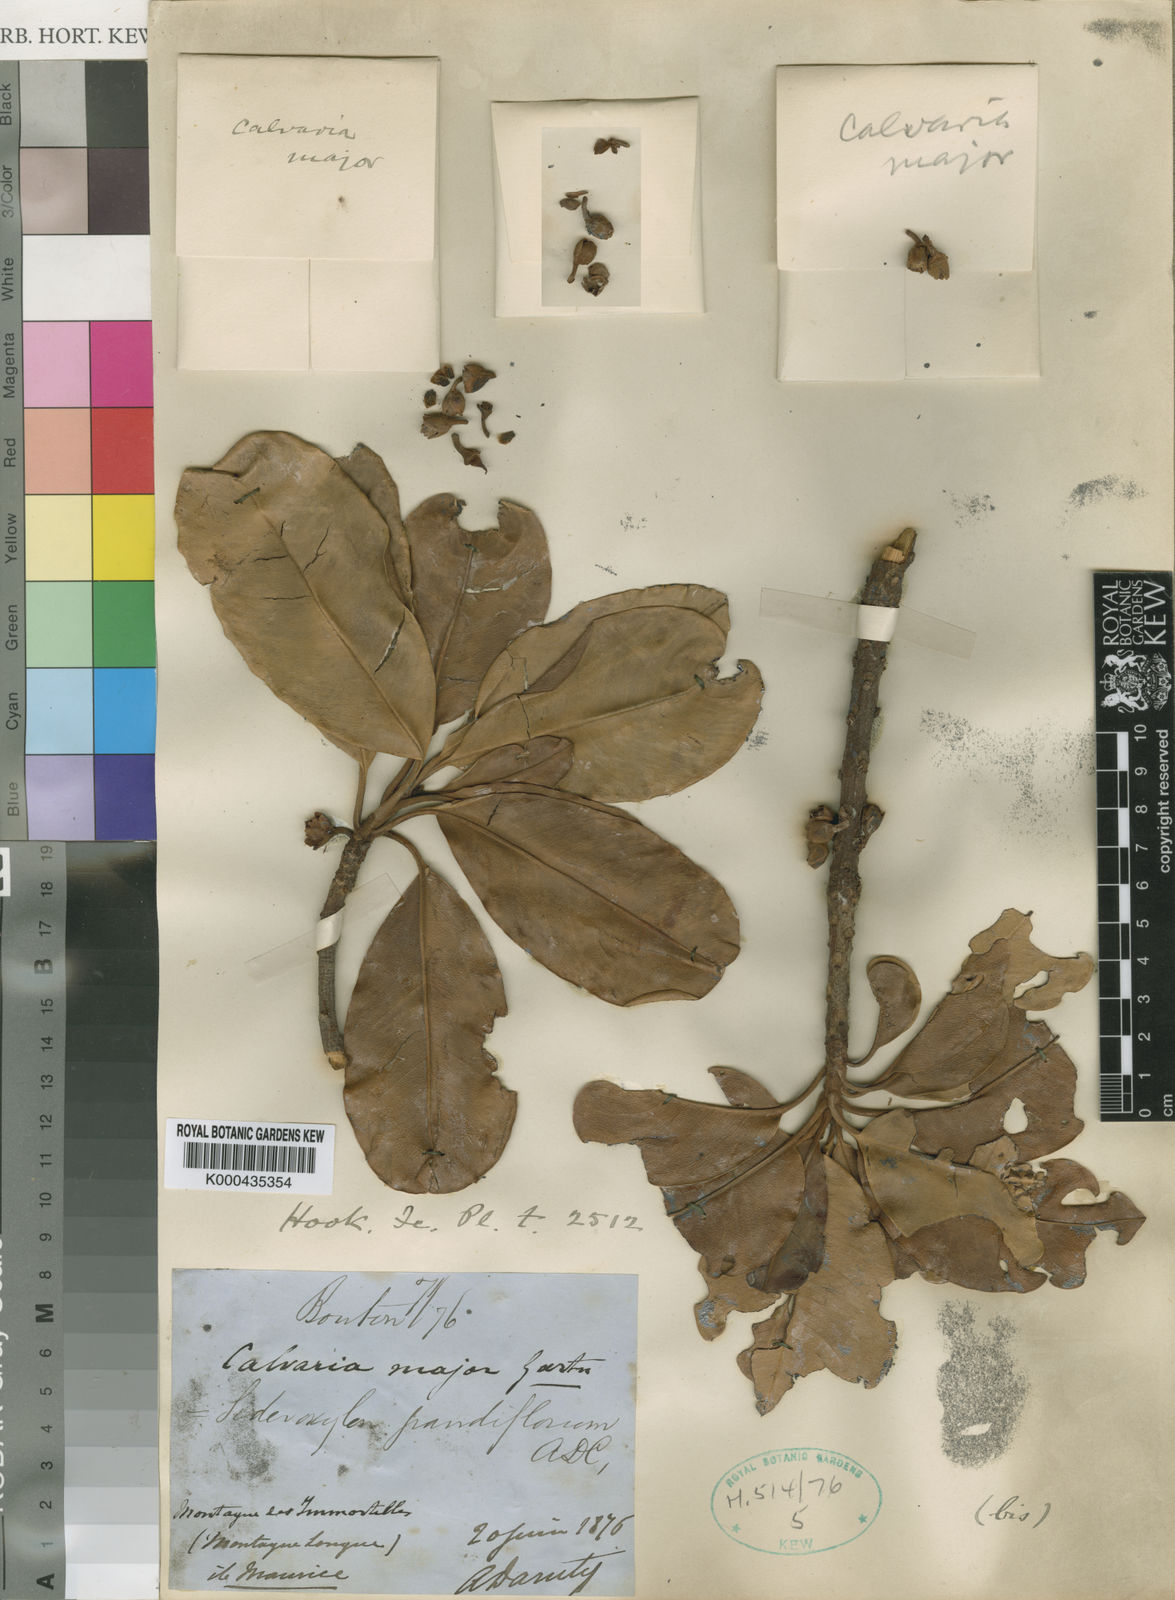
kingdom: Plantae
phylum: Tracheophyta
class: Magnoliopsida
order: Ericales
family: Sapotaceae
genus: Sideroxylon
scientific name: Sideroxylon grandiflorum
